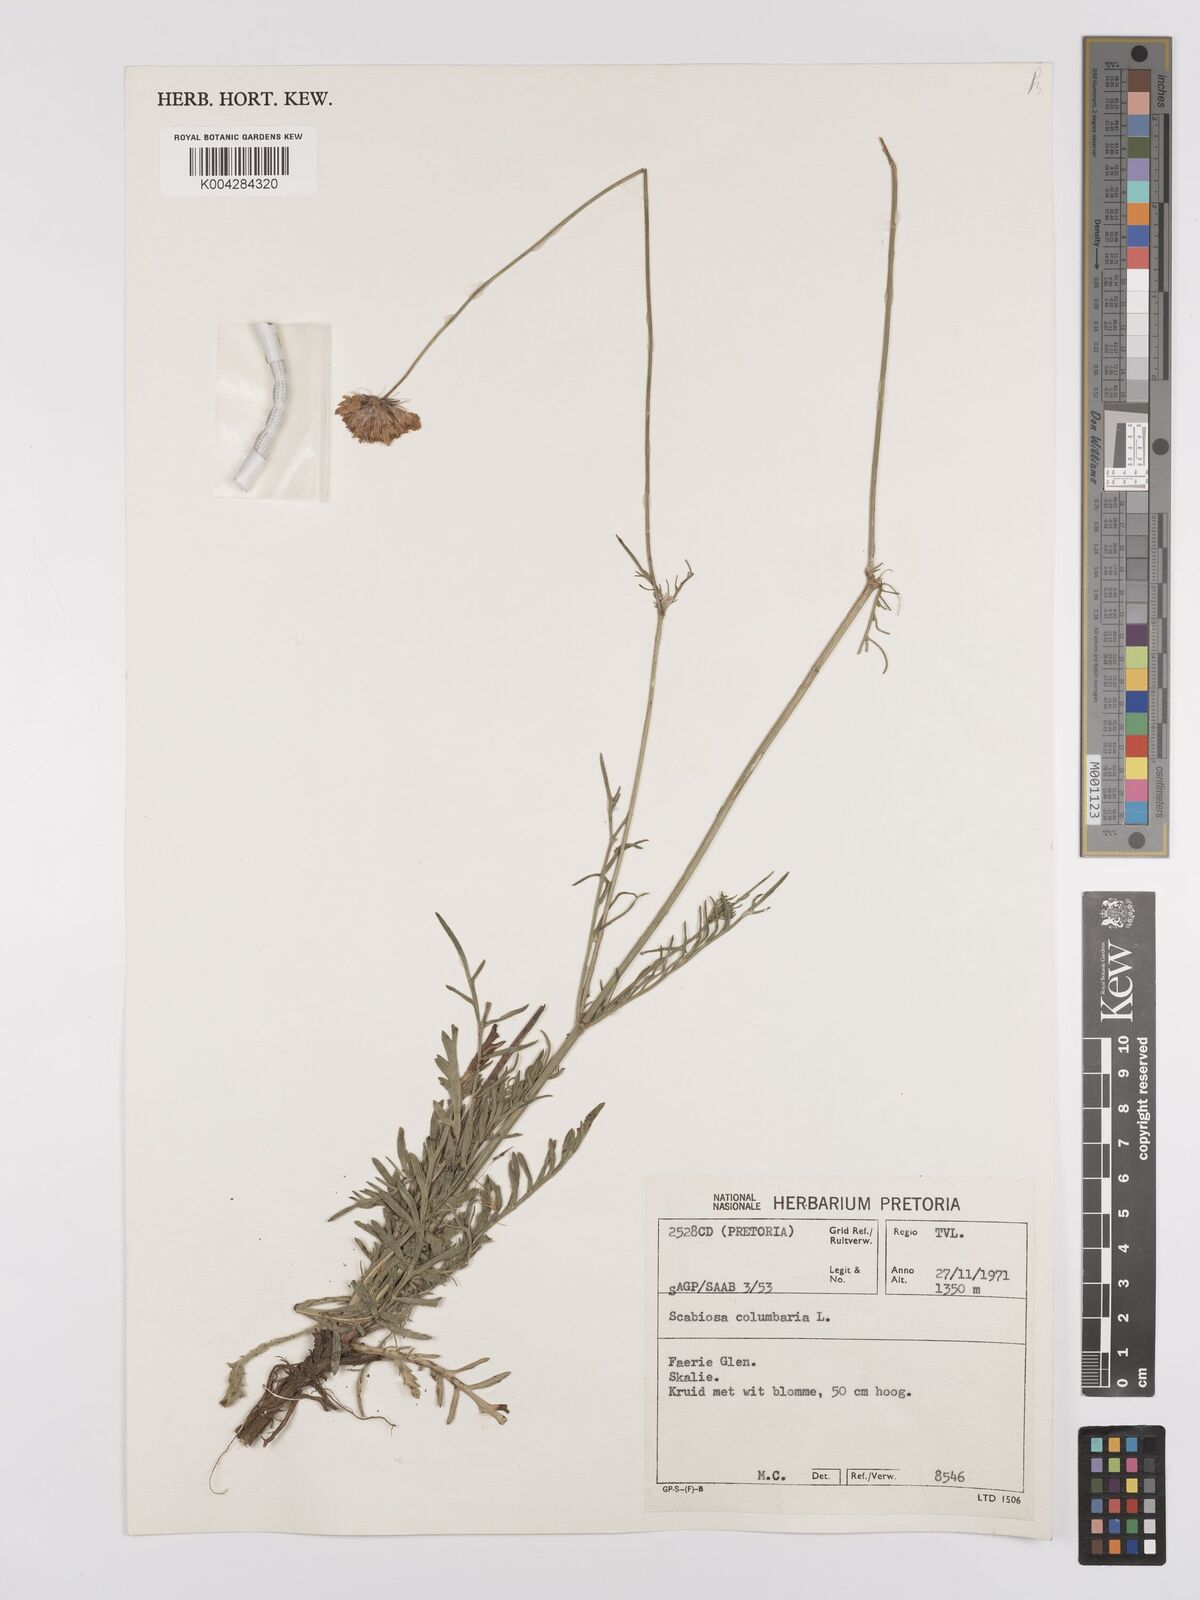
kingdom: Plantae
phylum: Tracheophyta
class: Magnoliopsida
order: Dipsacales
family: Caprifoliaceae
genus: Scabiosa
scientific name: Scabiosa austroafricana
